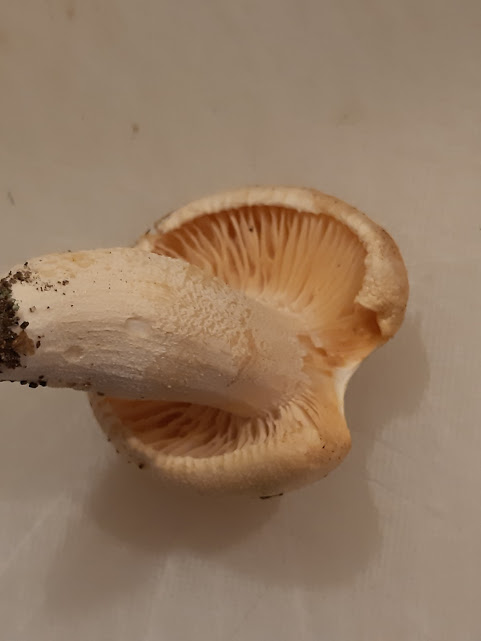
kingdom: Fungi
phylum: Basidiomycota
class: Agaricomycetes
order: Agaricales
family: Hygrophoraceae
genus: Hygrophorus
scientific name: Hygrophorus
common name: sneglehat
